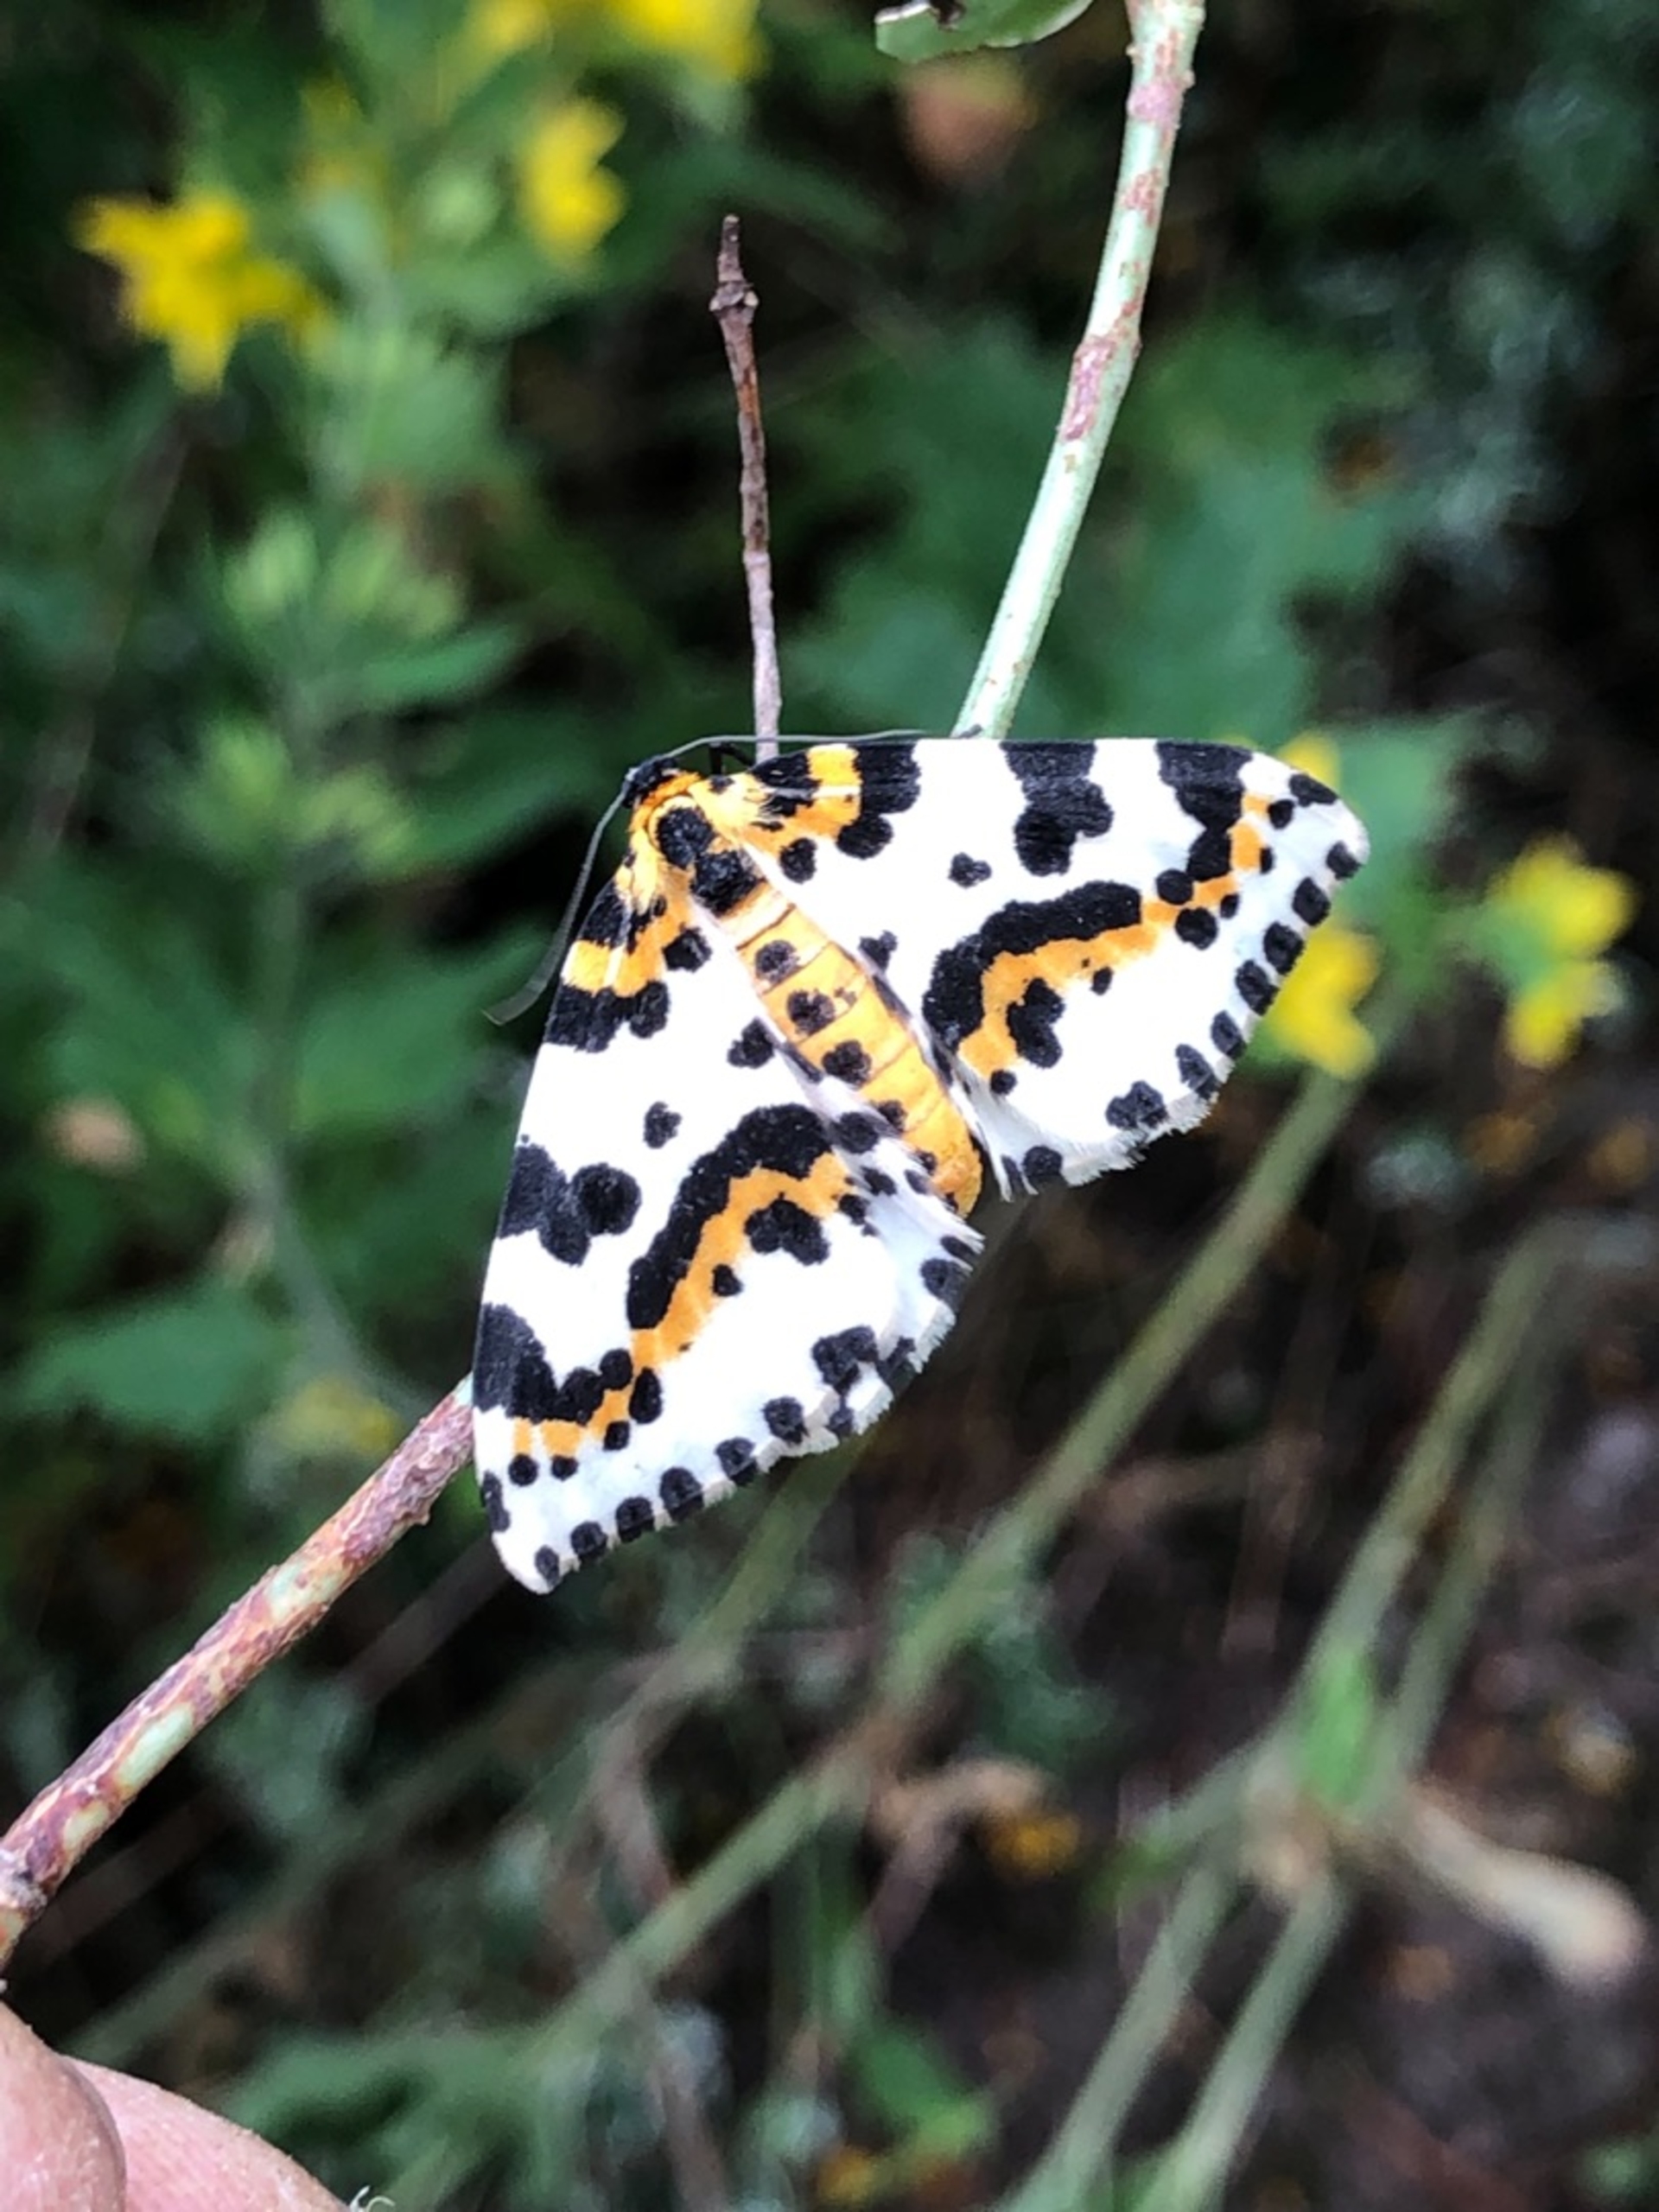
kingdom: Animalia
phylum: Arthropoda
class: Insecta
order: Lepidoptera
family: Geometridae
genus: Abraxas
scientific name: Abraxas grossulariata
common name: Harlekin
